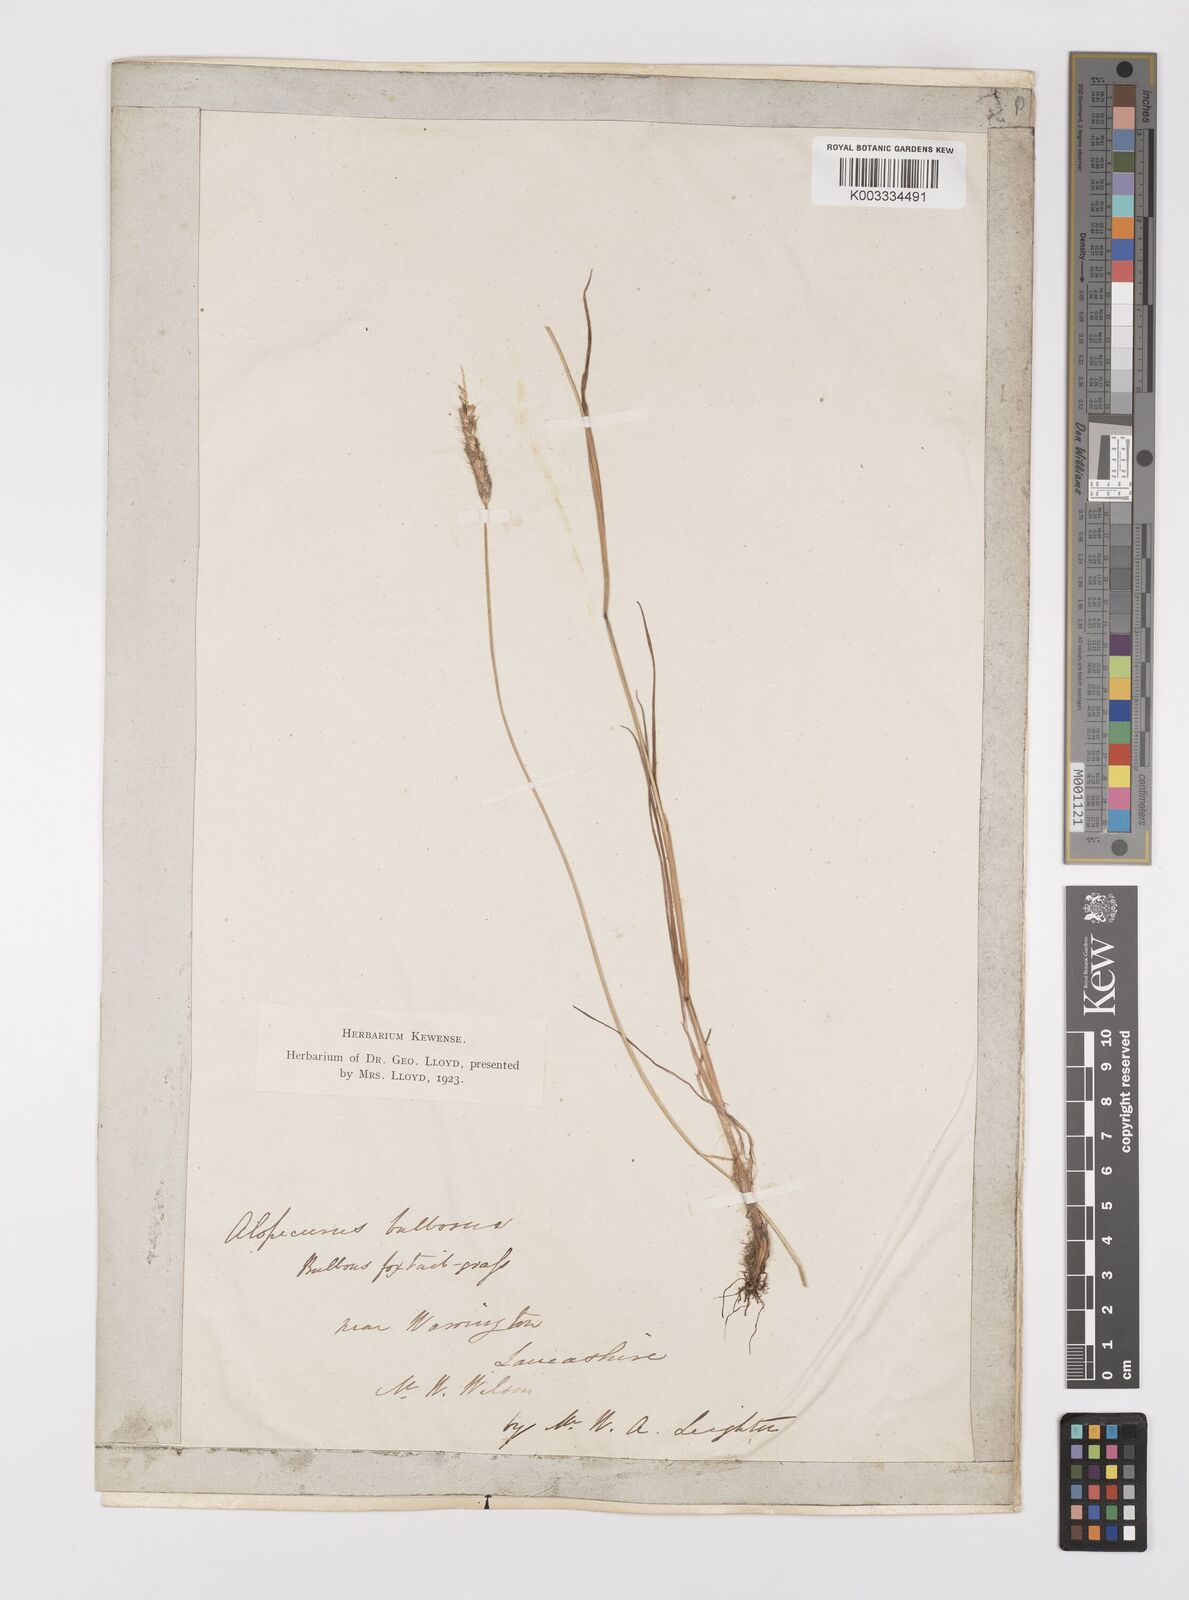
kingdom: Plantae
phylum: Tracheophyta
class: Liliopsida
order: Poales
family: Poaceae
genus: Alopecurus
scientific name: Alopecurus bulbosus
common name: Bulbous foxtail
